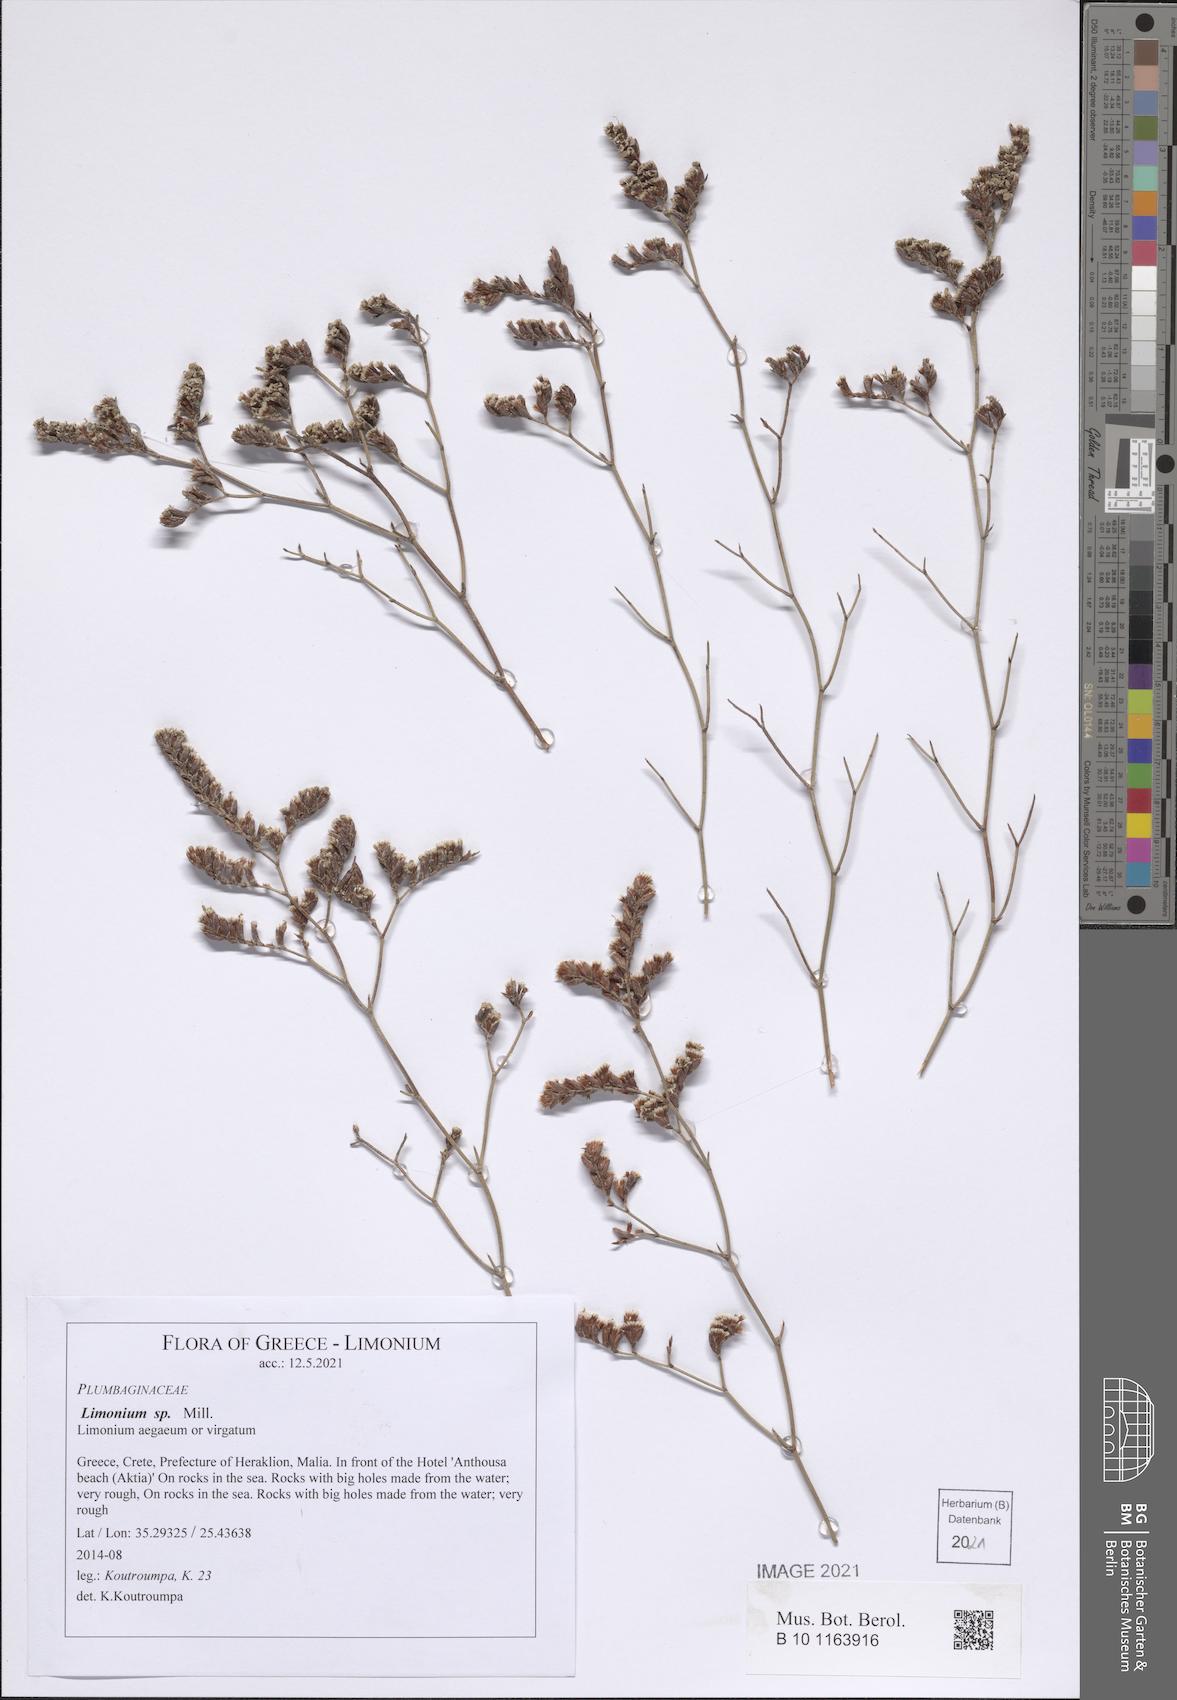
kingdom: Plantae
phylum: Tracheophyta
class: Magnoliopsida
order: Caryophyllales
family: Plumbaginaceae
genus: Limonium
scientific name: Limonium
